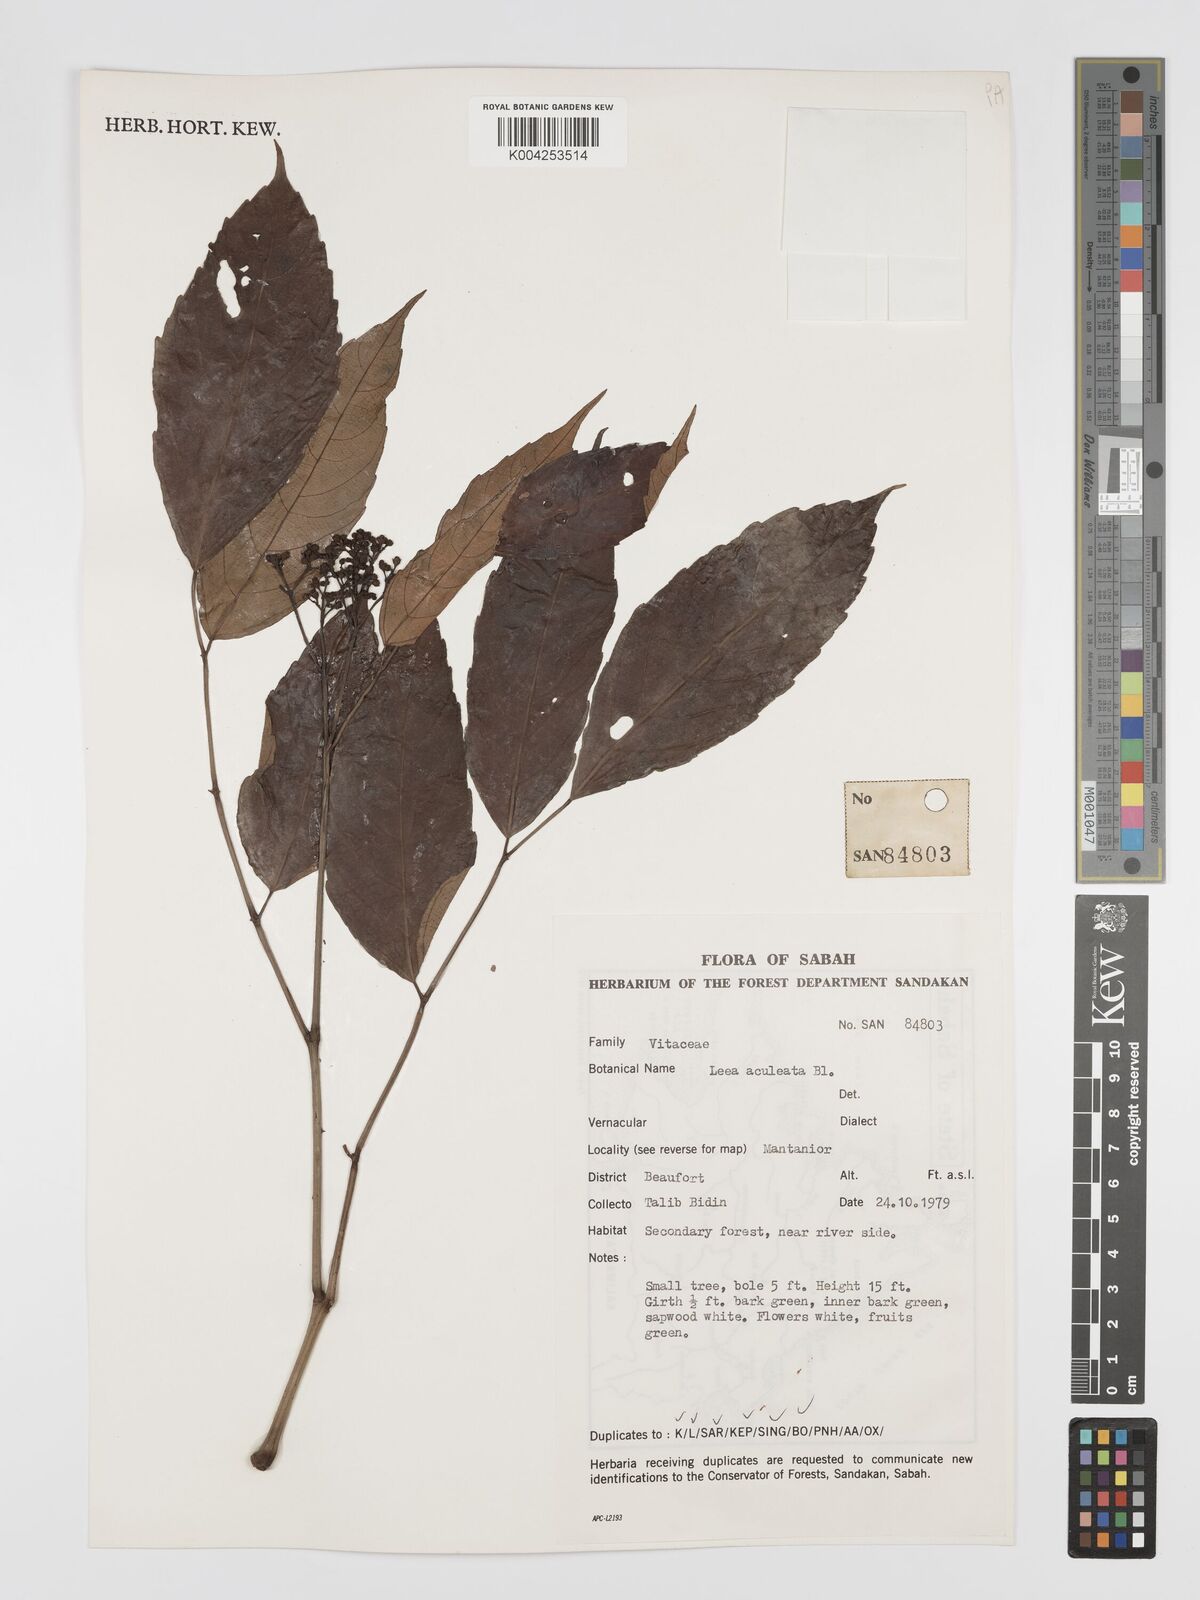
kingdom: Plantae
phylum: Tracheophyta
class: Magnoliopsida
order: Vitales
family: Vitaceae
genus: Leea
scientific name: Leea aculeata
